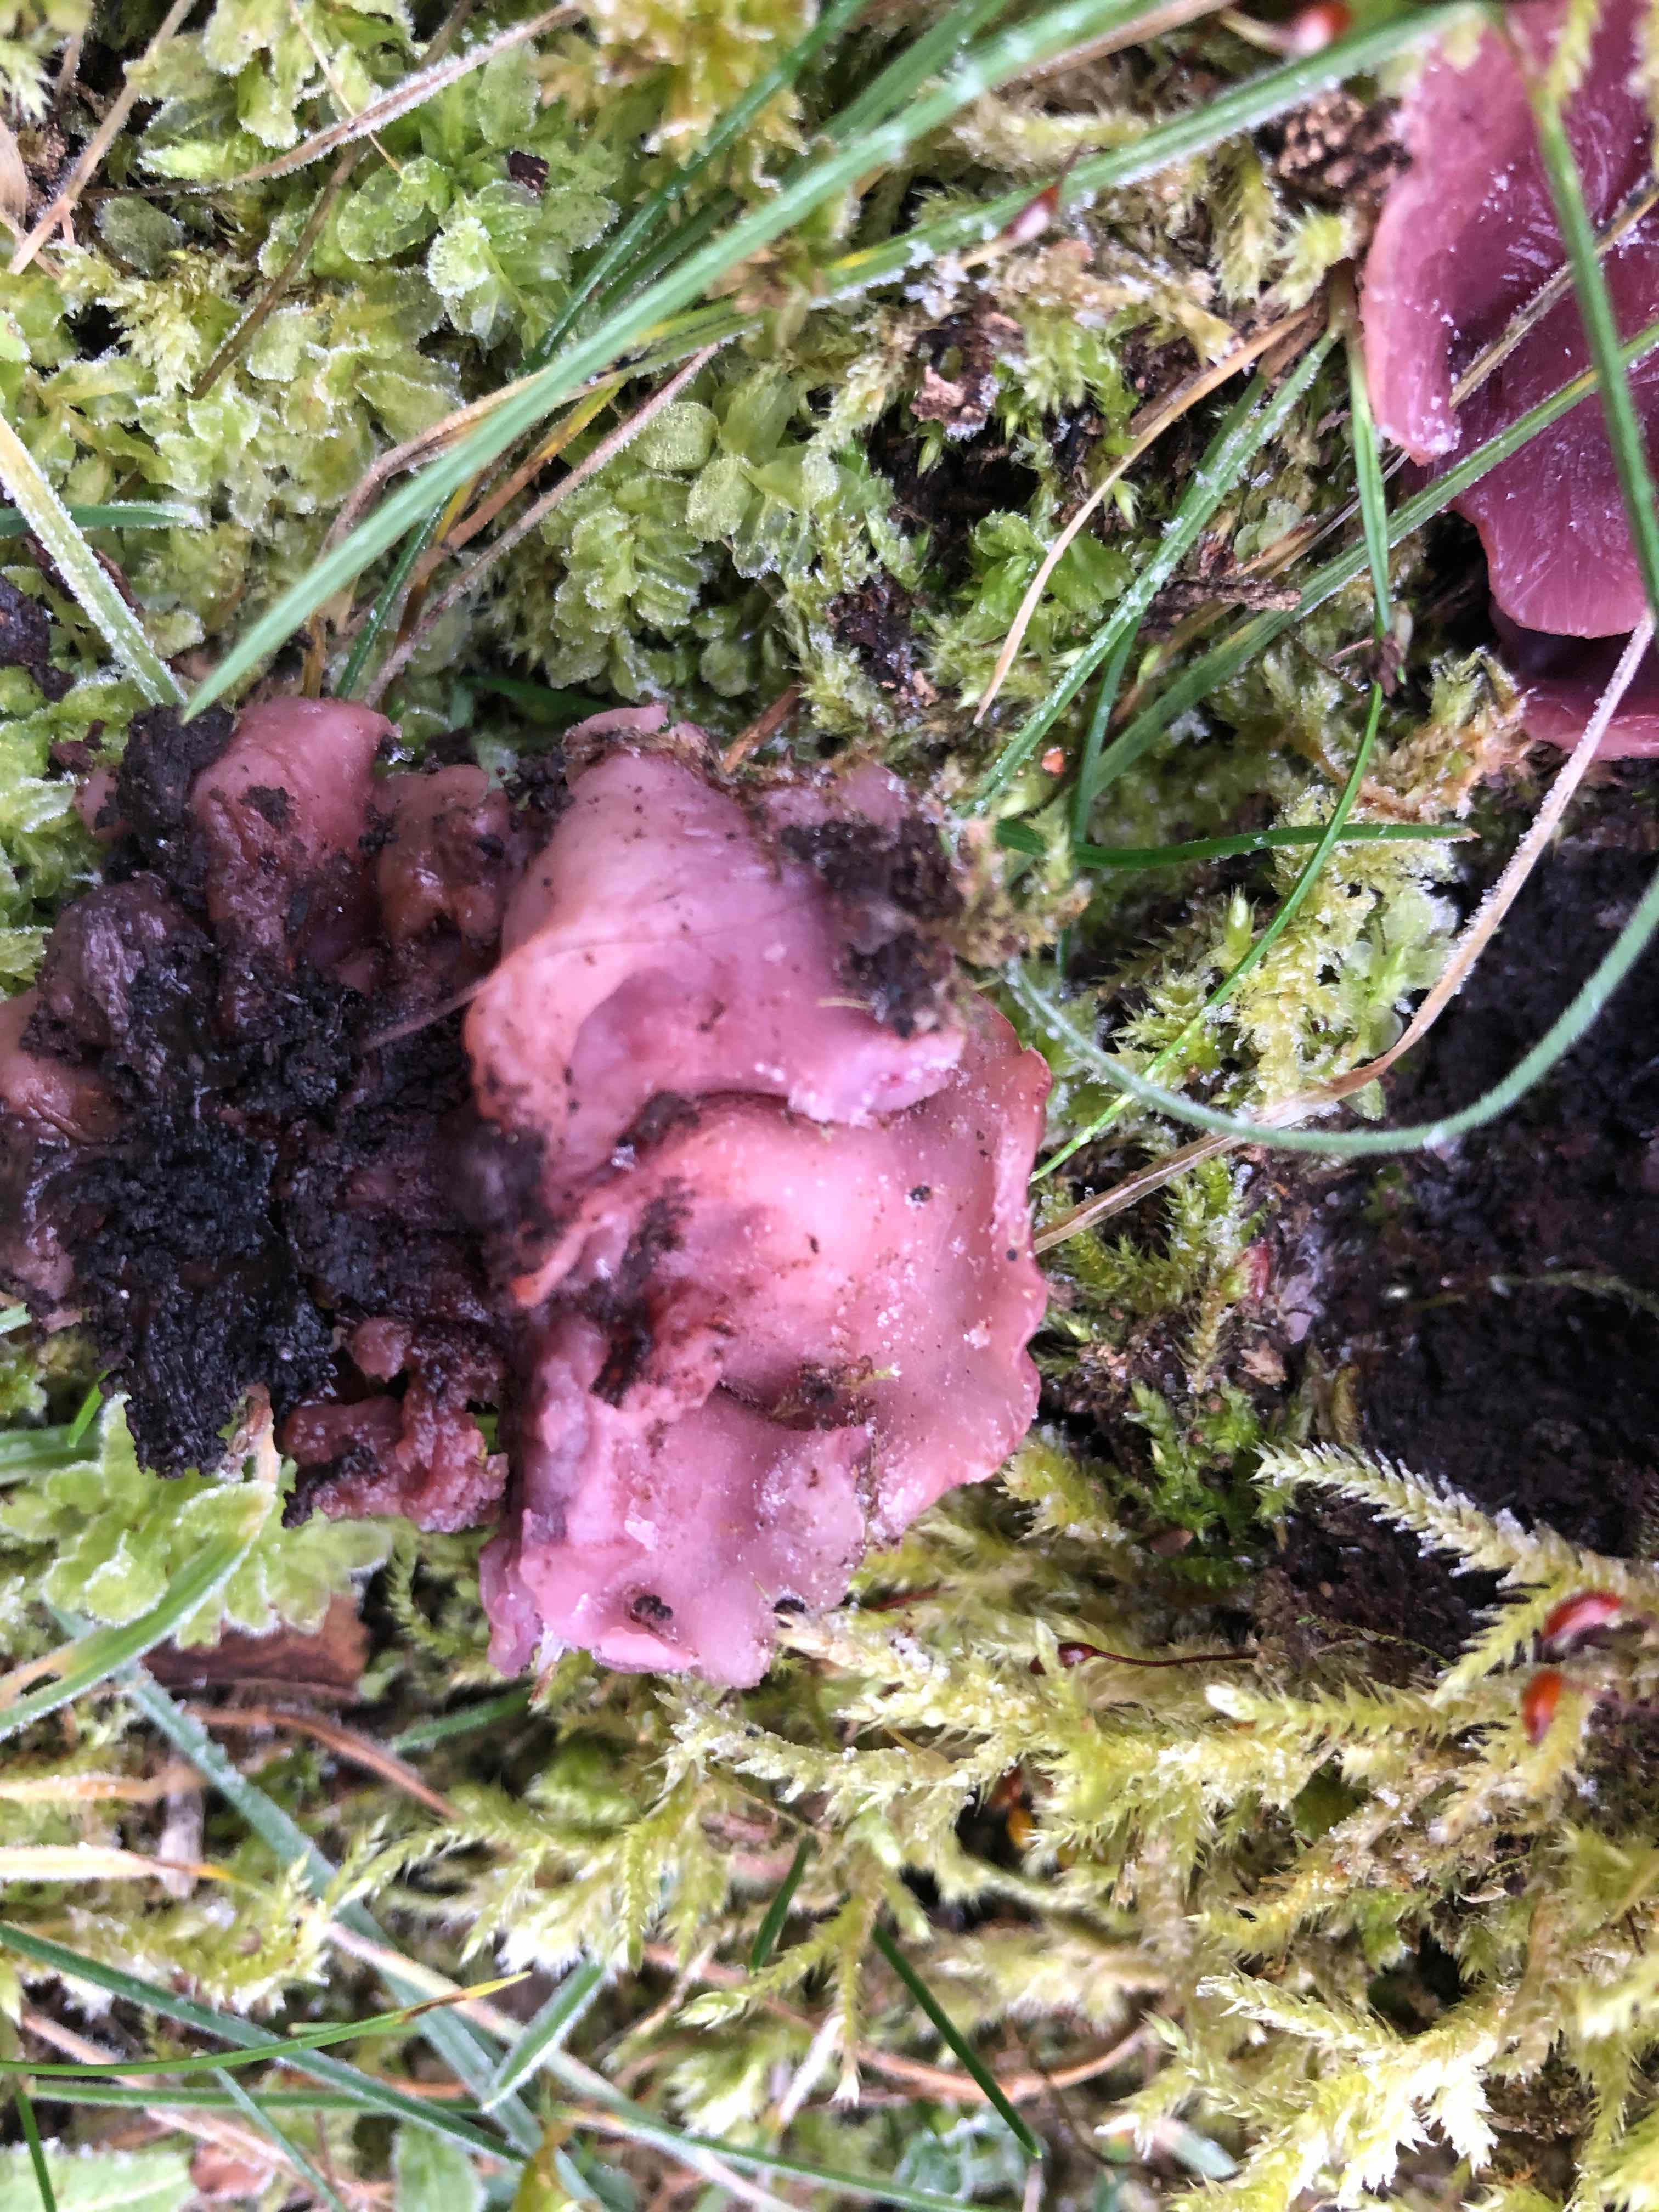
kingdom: Fungi
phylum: Ascomycota
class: Leotiomycetes
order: Helotiales
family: Gelatinodiscaceae
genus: Ascocoryne
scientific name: Ascocoryne cylichnium
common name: stor sejskive
